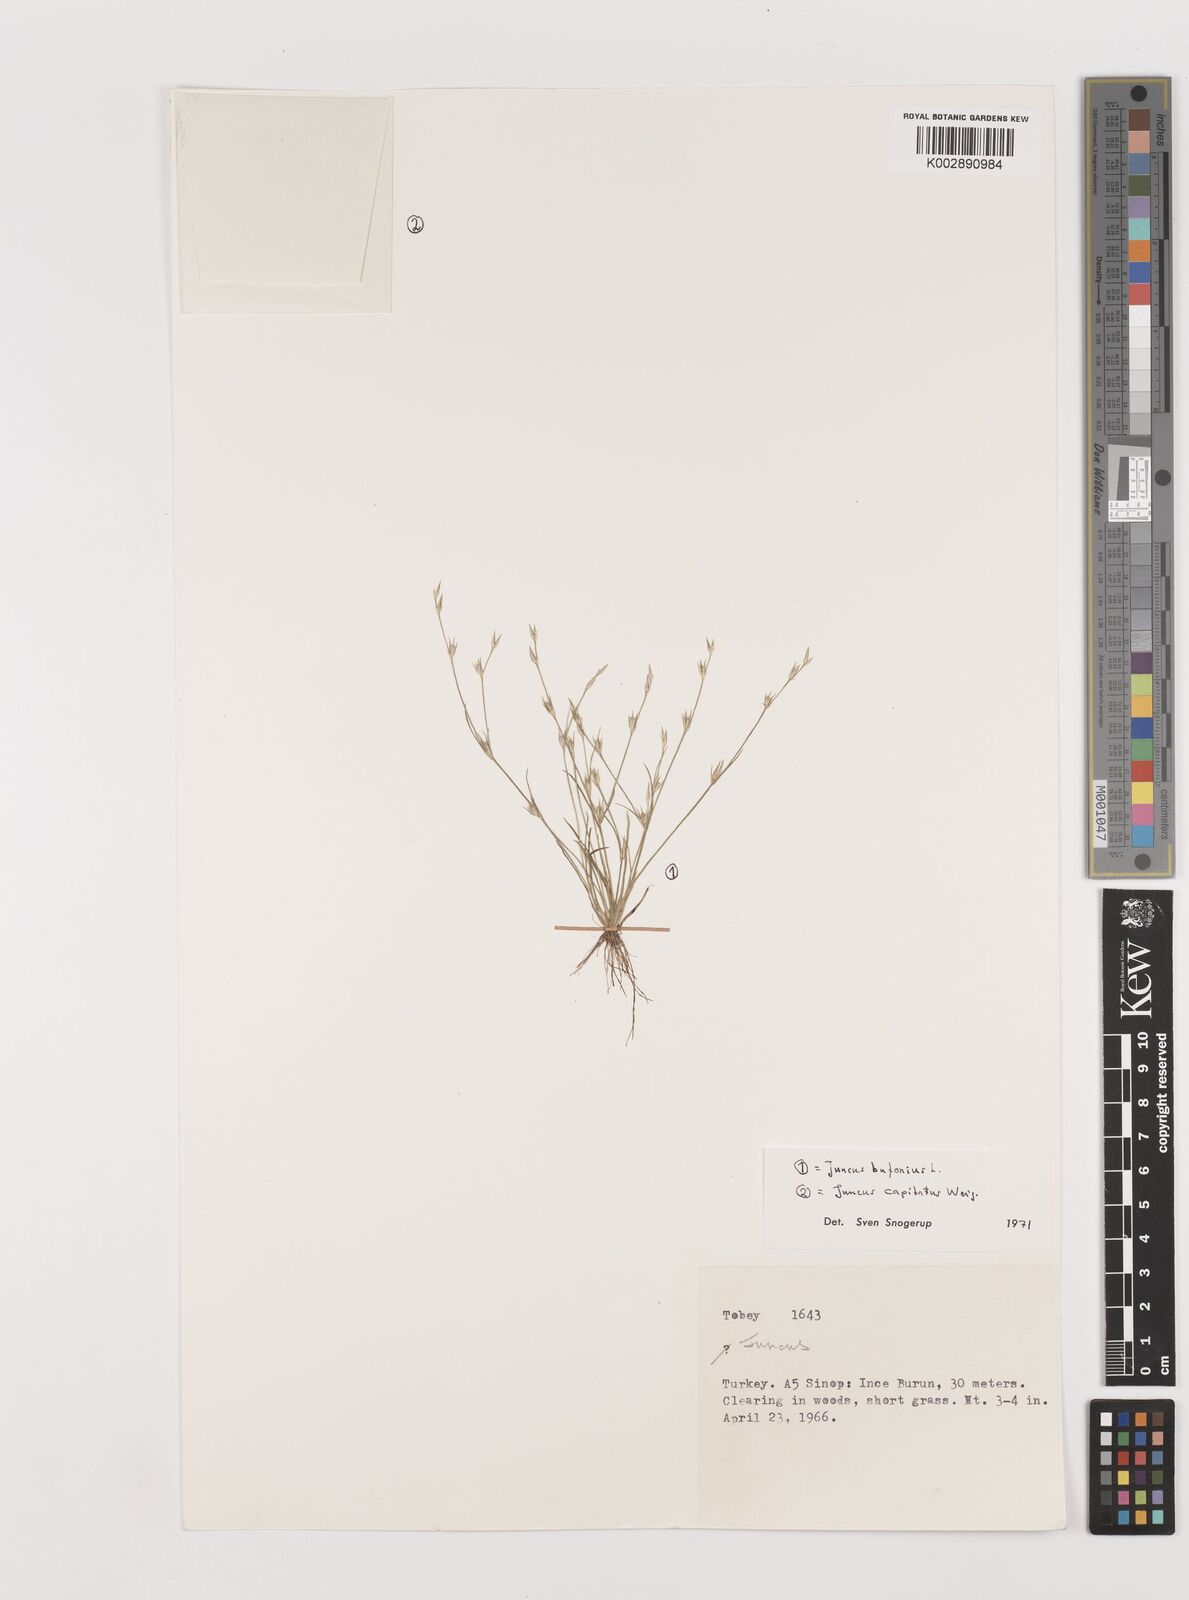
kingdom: Plantae
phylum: Tracheophyta
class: Liliopsida
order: Poales
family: Juncaceae
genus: Juncus
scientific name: Juncus bufonius
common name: Toad rush
